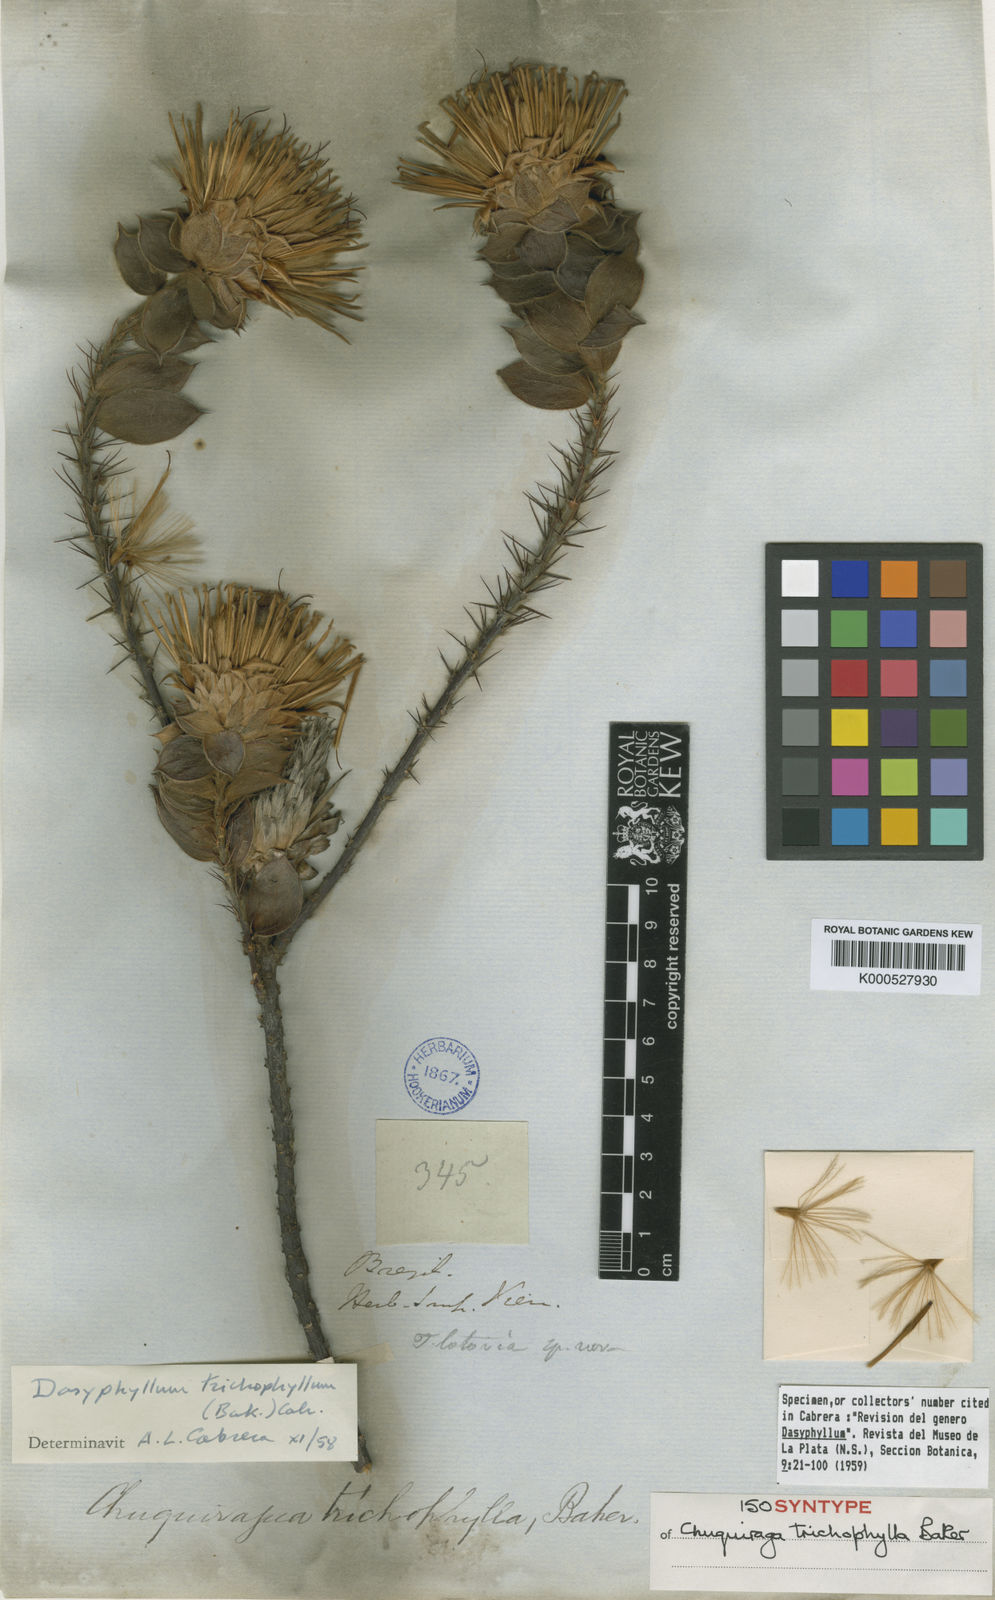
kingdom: Plantae
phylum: Tracheophyta
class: Magnoliopsida
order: Asterales
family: Asteraceae
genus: Dasyphyllum
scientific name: Dasyphyllum trichophyllum
